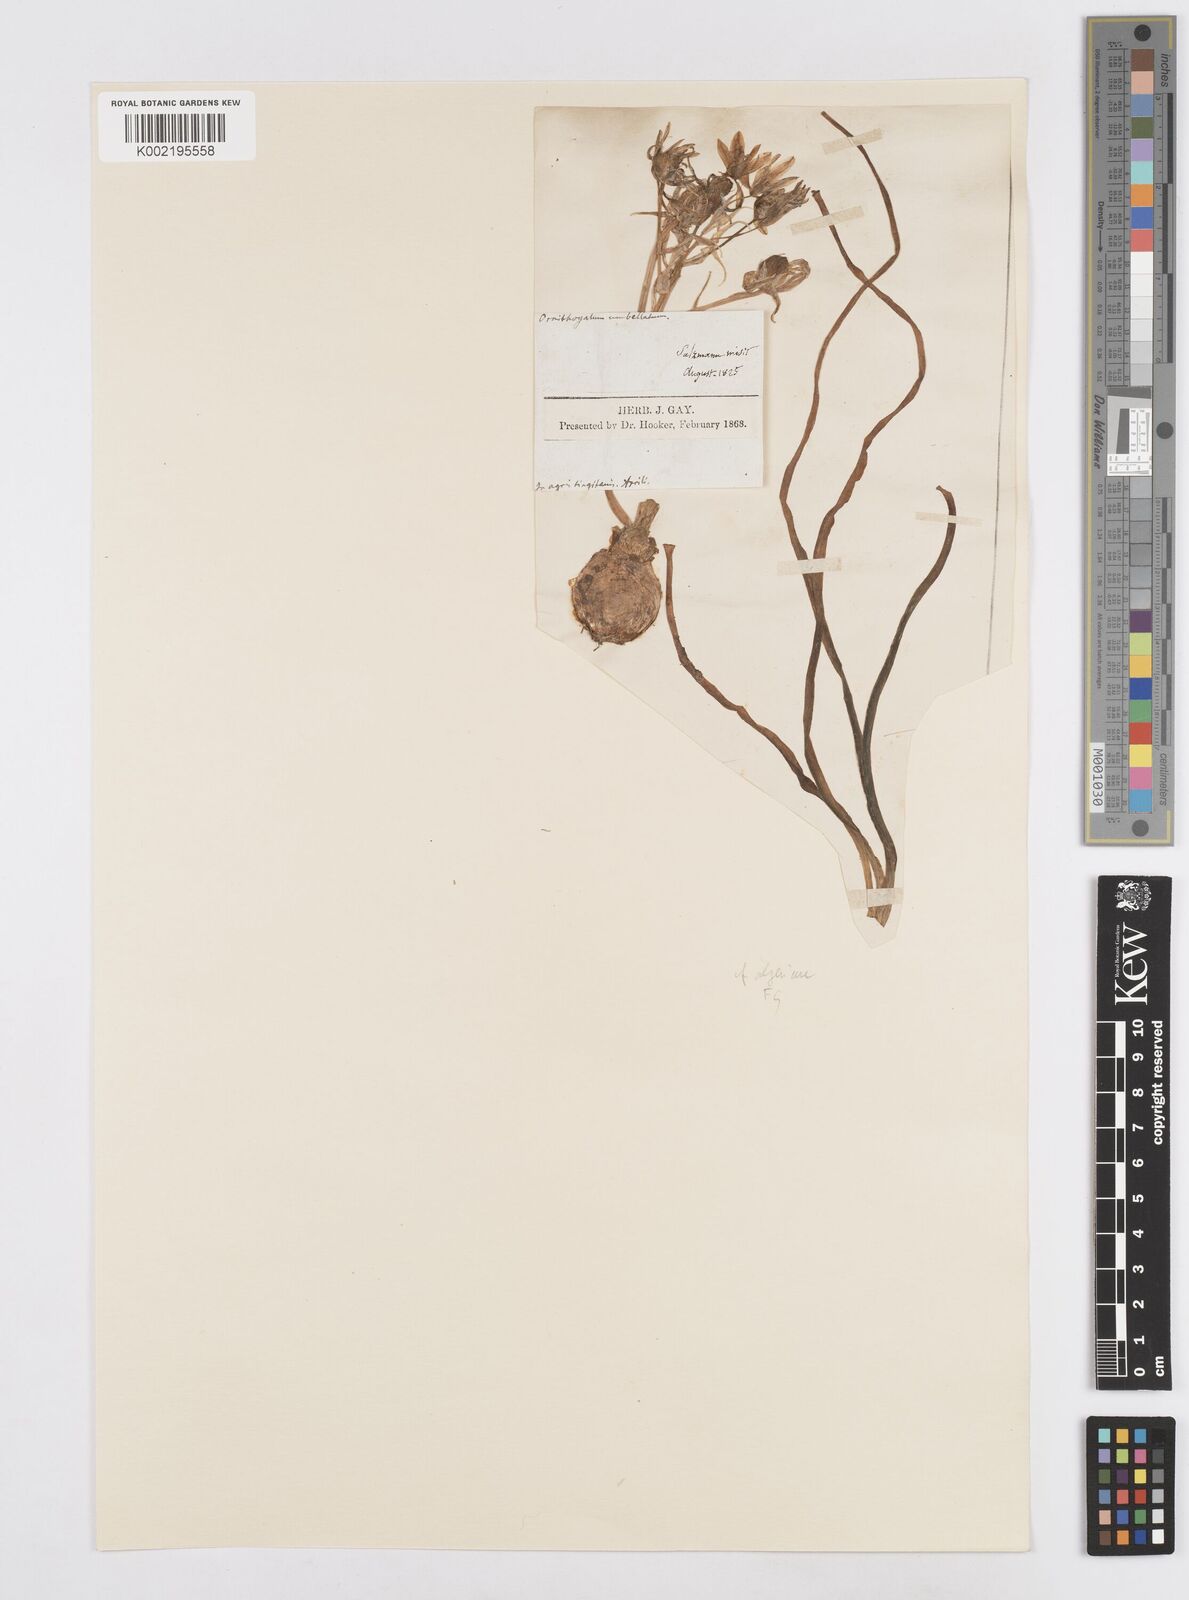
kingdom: Plantae
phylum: Tracheophyta
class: Liliopsida
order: Asparagales
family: Asparagaceae
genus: Ornithogalum
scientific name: Ornithogalum umbellatum
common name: Garden star-of-bethlehem
